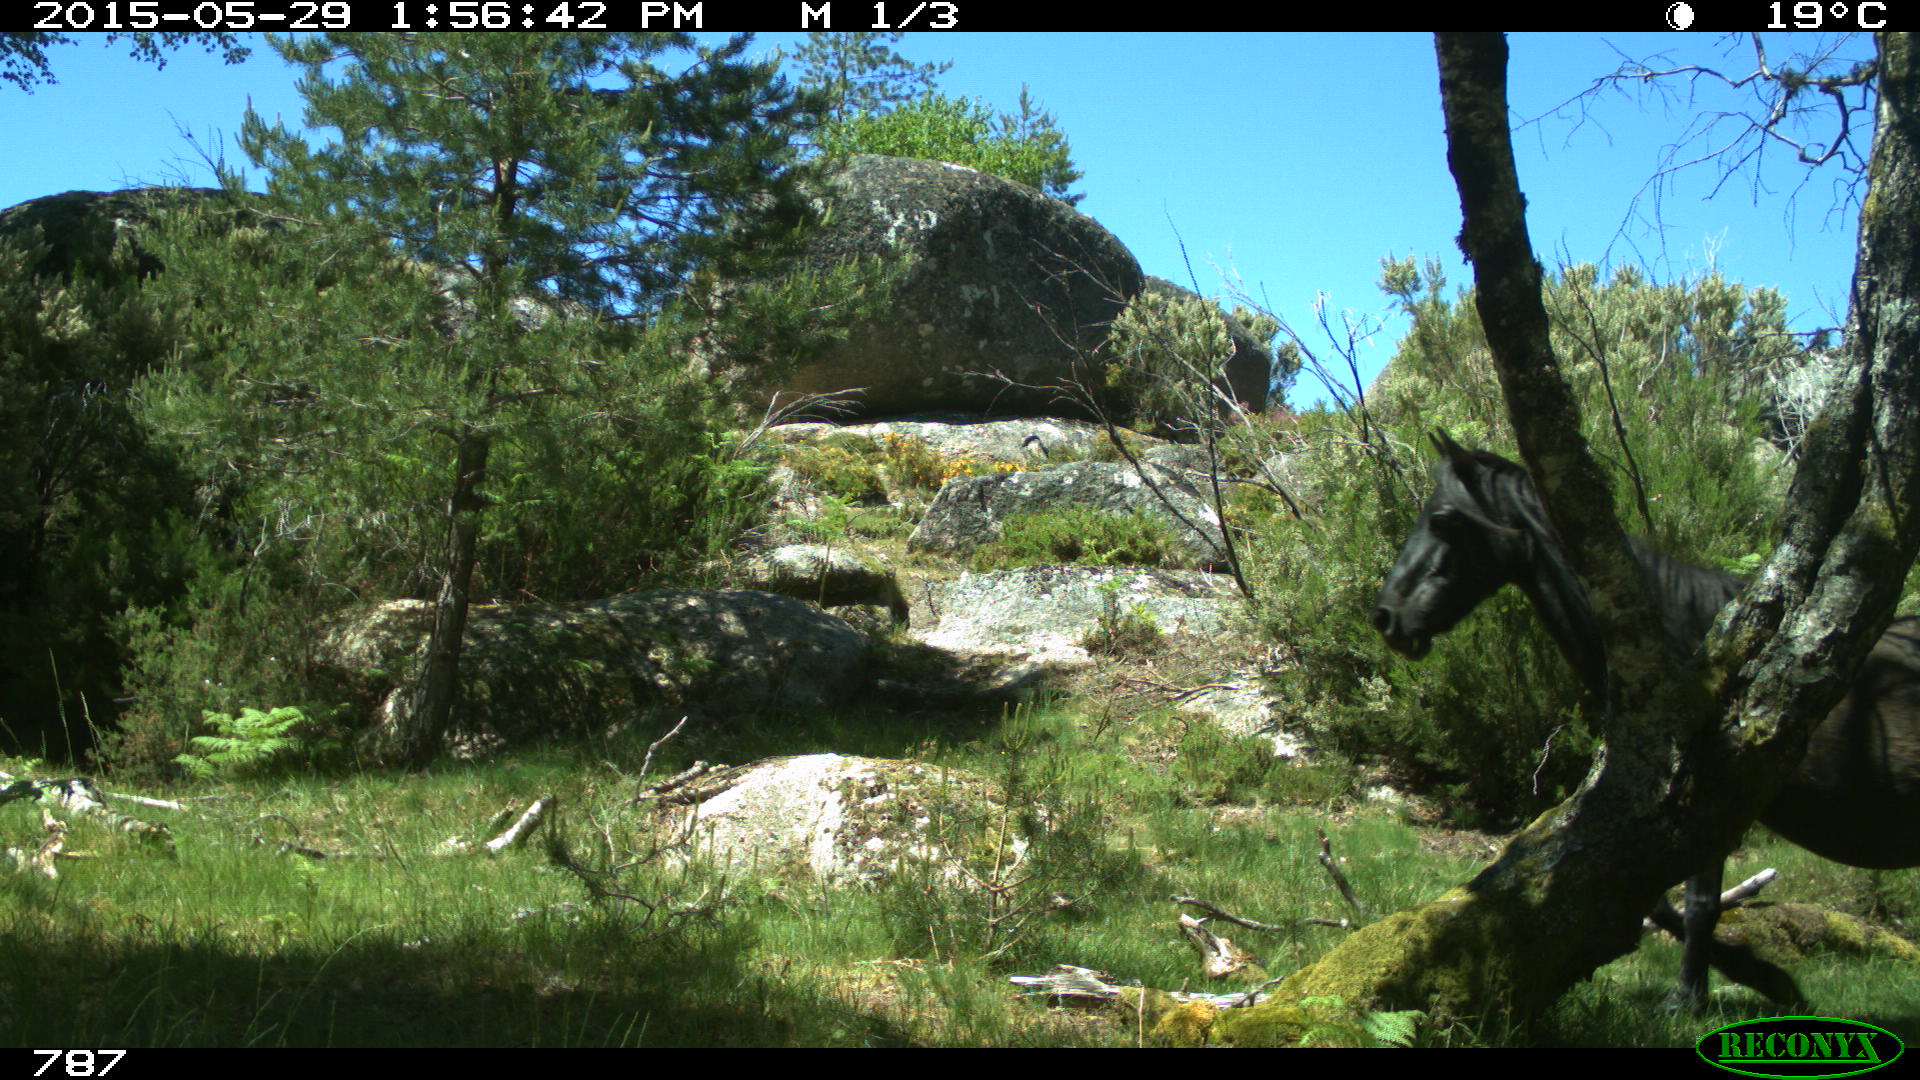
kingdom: Animalia
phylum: Chordata
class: Mammalia
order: Perissodactyla
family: Equidae
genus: Equus
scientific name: Equus caballus
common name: Horse
